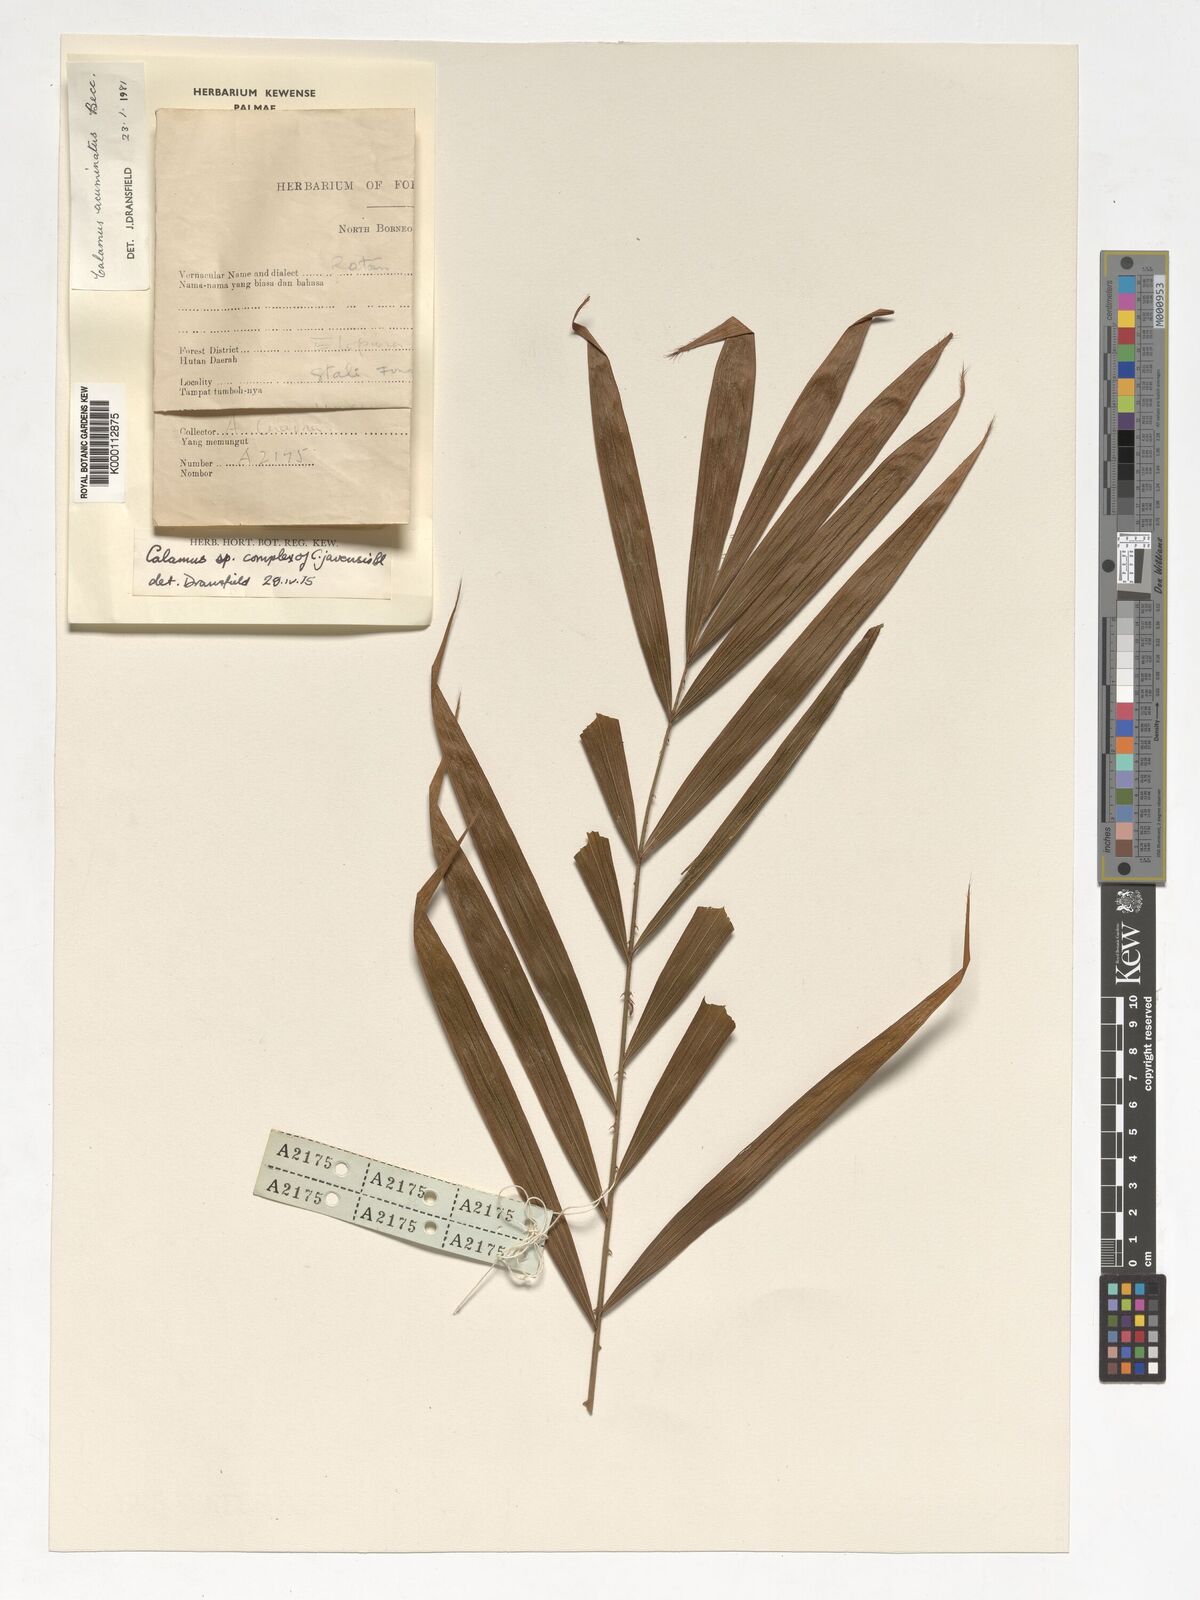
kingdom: Plantae
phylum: Tracheophyta
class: Liliopsida
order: Arecales
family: Arecaceae
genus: Calamus
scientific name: Calamus javensis
